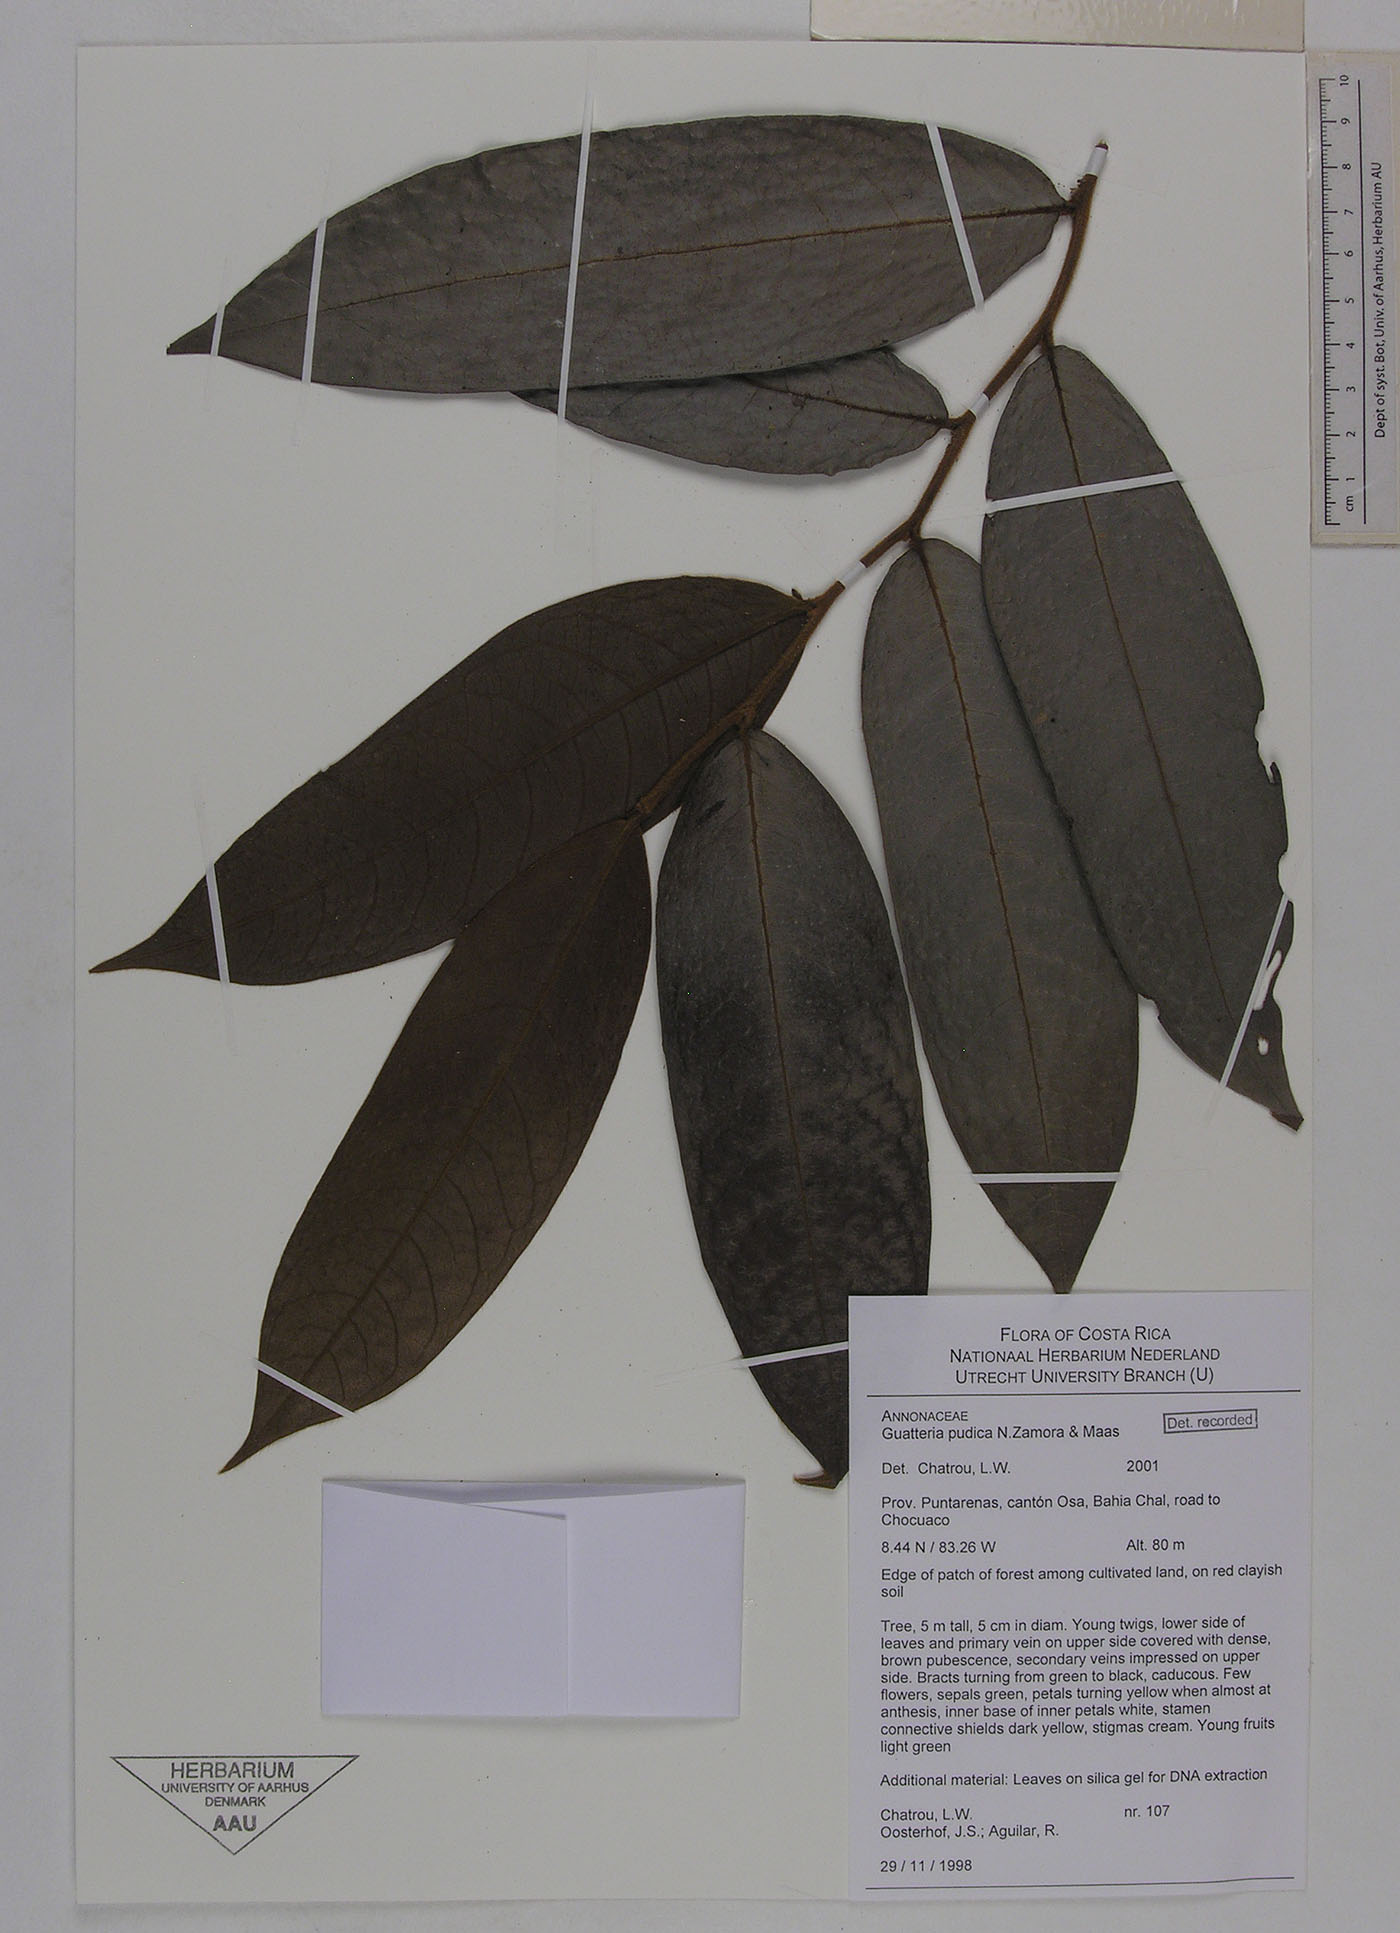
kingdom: Plantae
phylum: Tracheophyta
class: Magnoliopsida
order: Magnoliales
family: Annonaceae
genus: Guatteria
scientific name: Guatteria pudica
